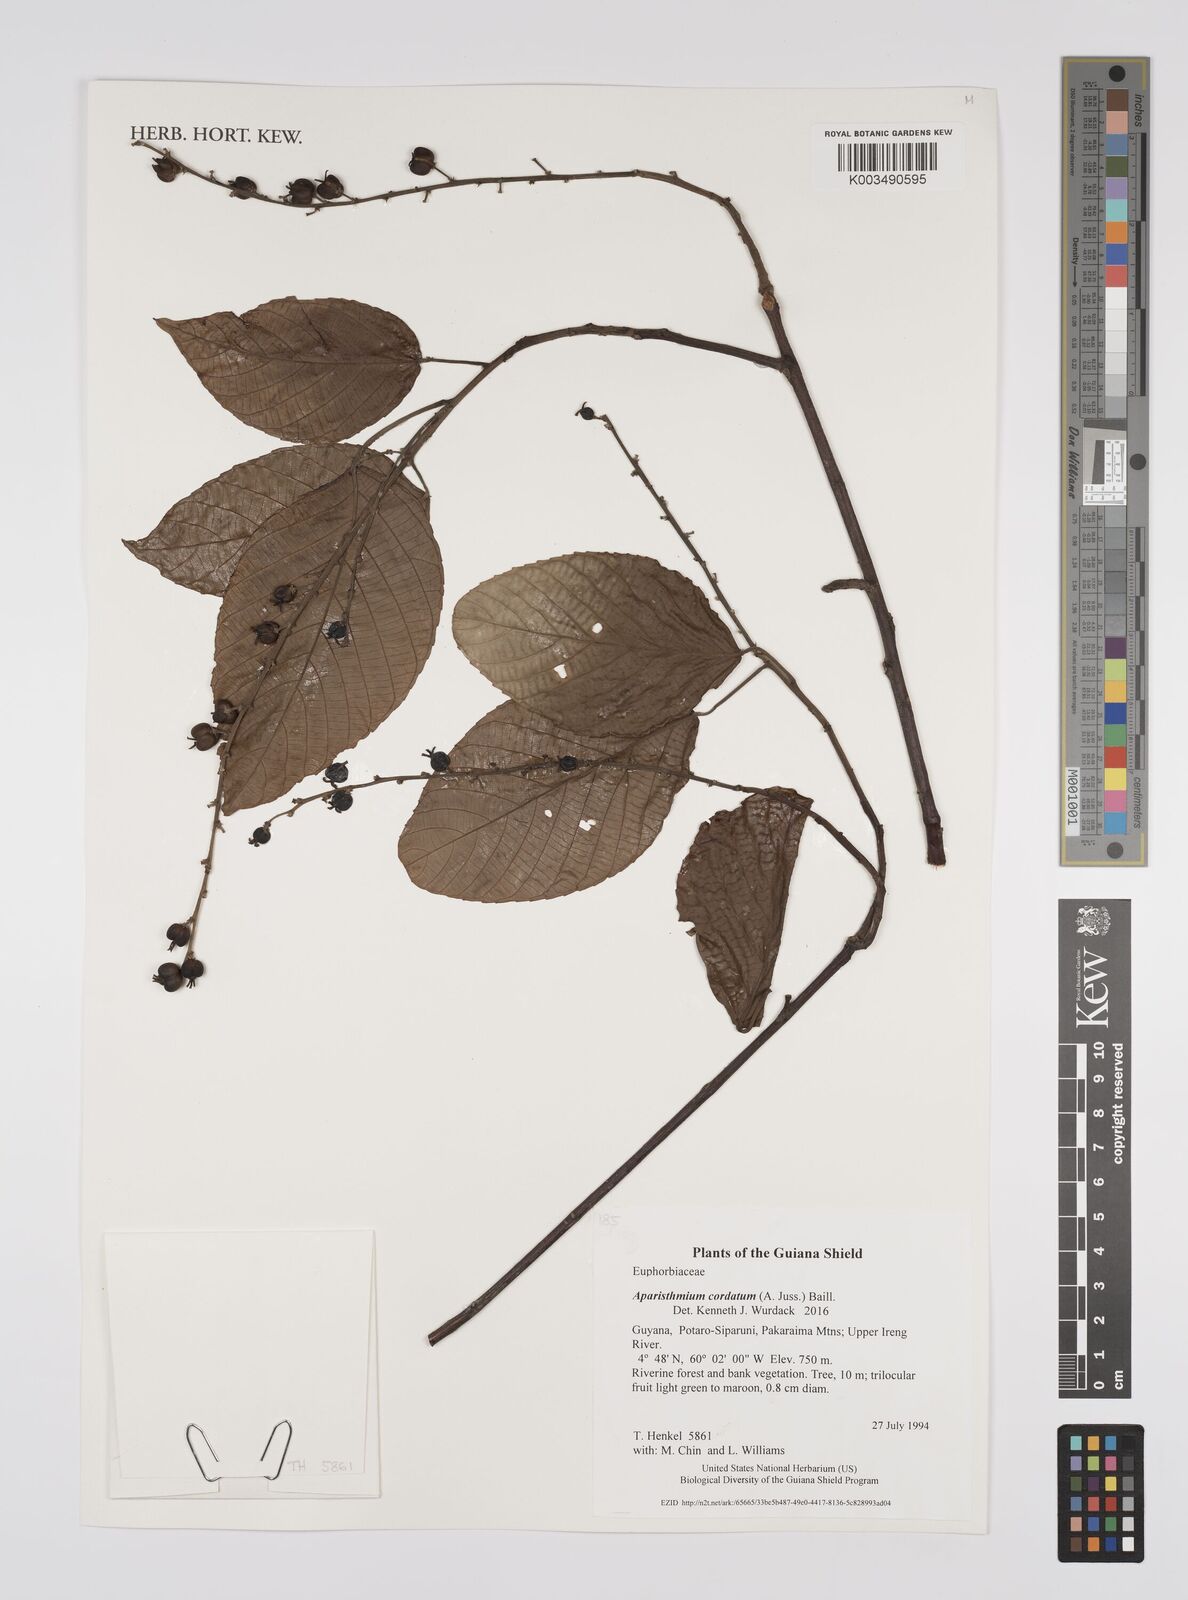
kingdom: Plantae
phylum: Tracheophyta
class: Magnoliopsida
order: Malpighiales
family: Euphorbiaceae
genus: Aparisthmium
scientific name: Aparisthmium cordatum
